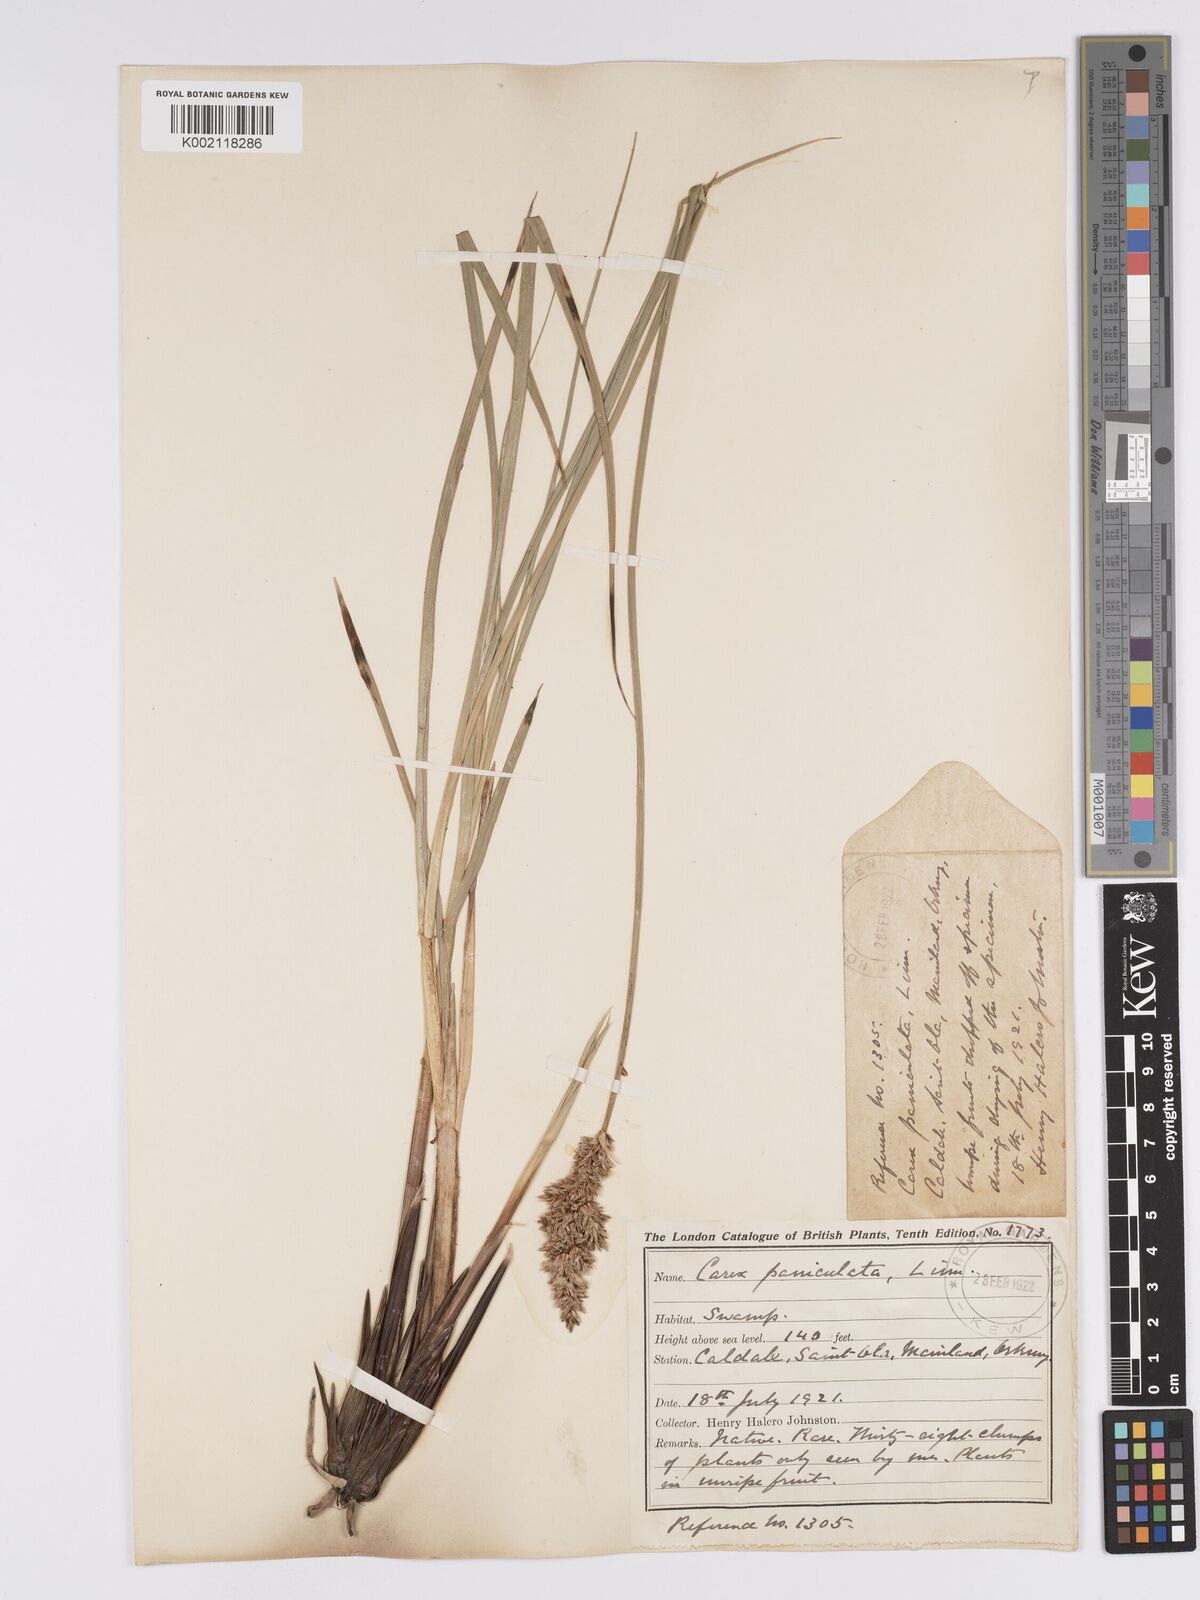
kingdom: Plantae
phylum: Tracheophyta
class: Liliopsida
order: Poales
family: Cyperaceae
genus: Carex
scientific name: Carex paniculata
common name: Greater tussock-sedge
